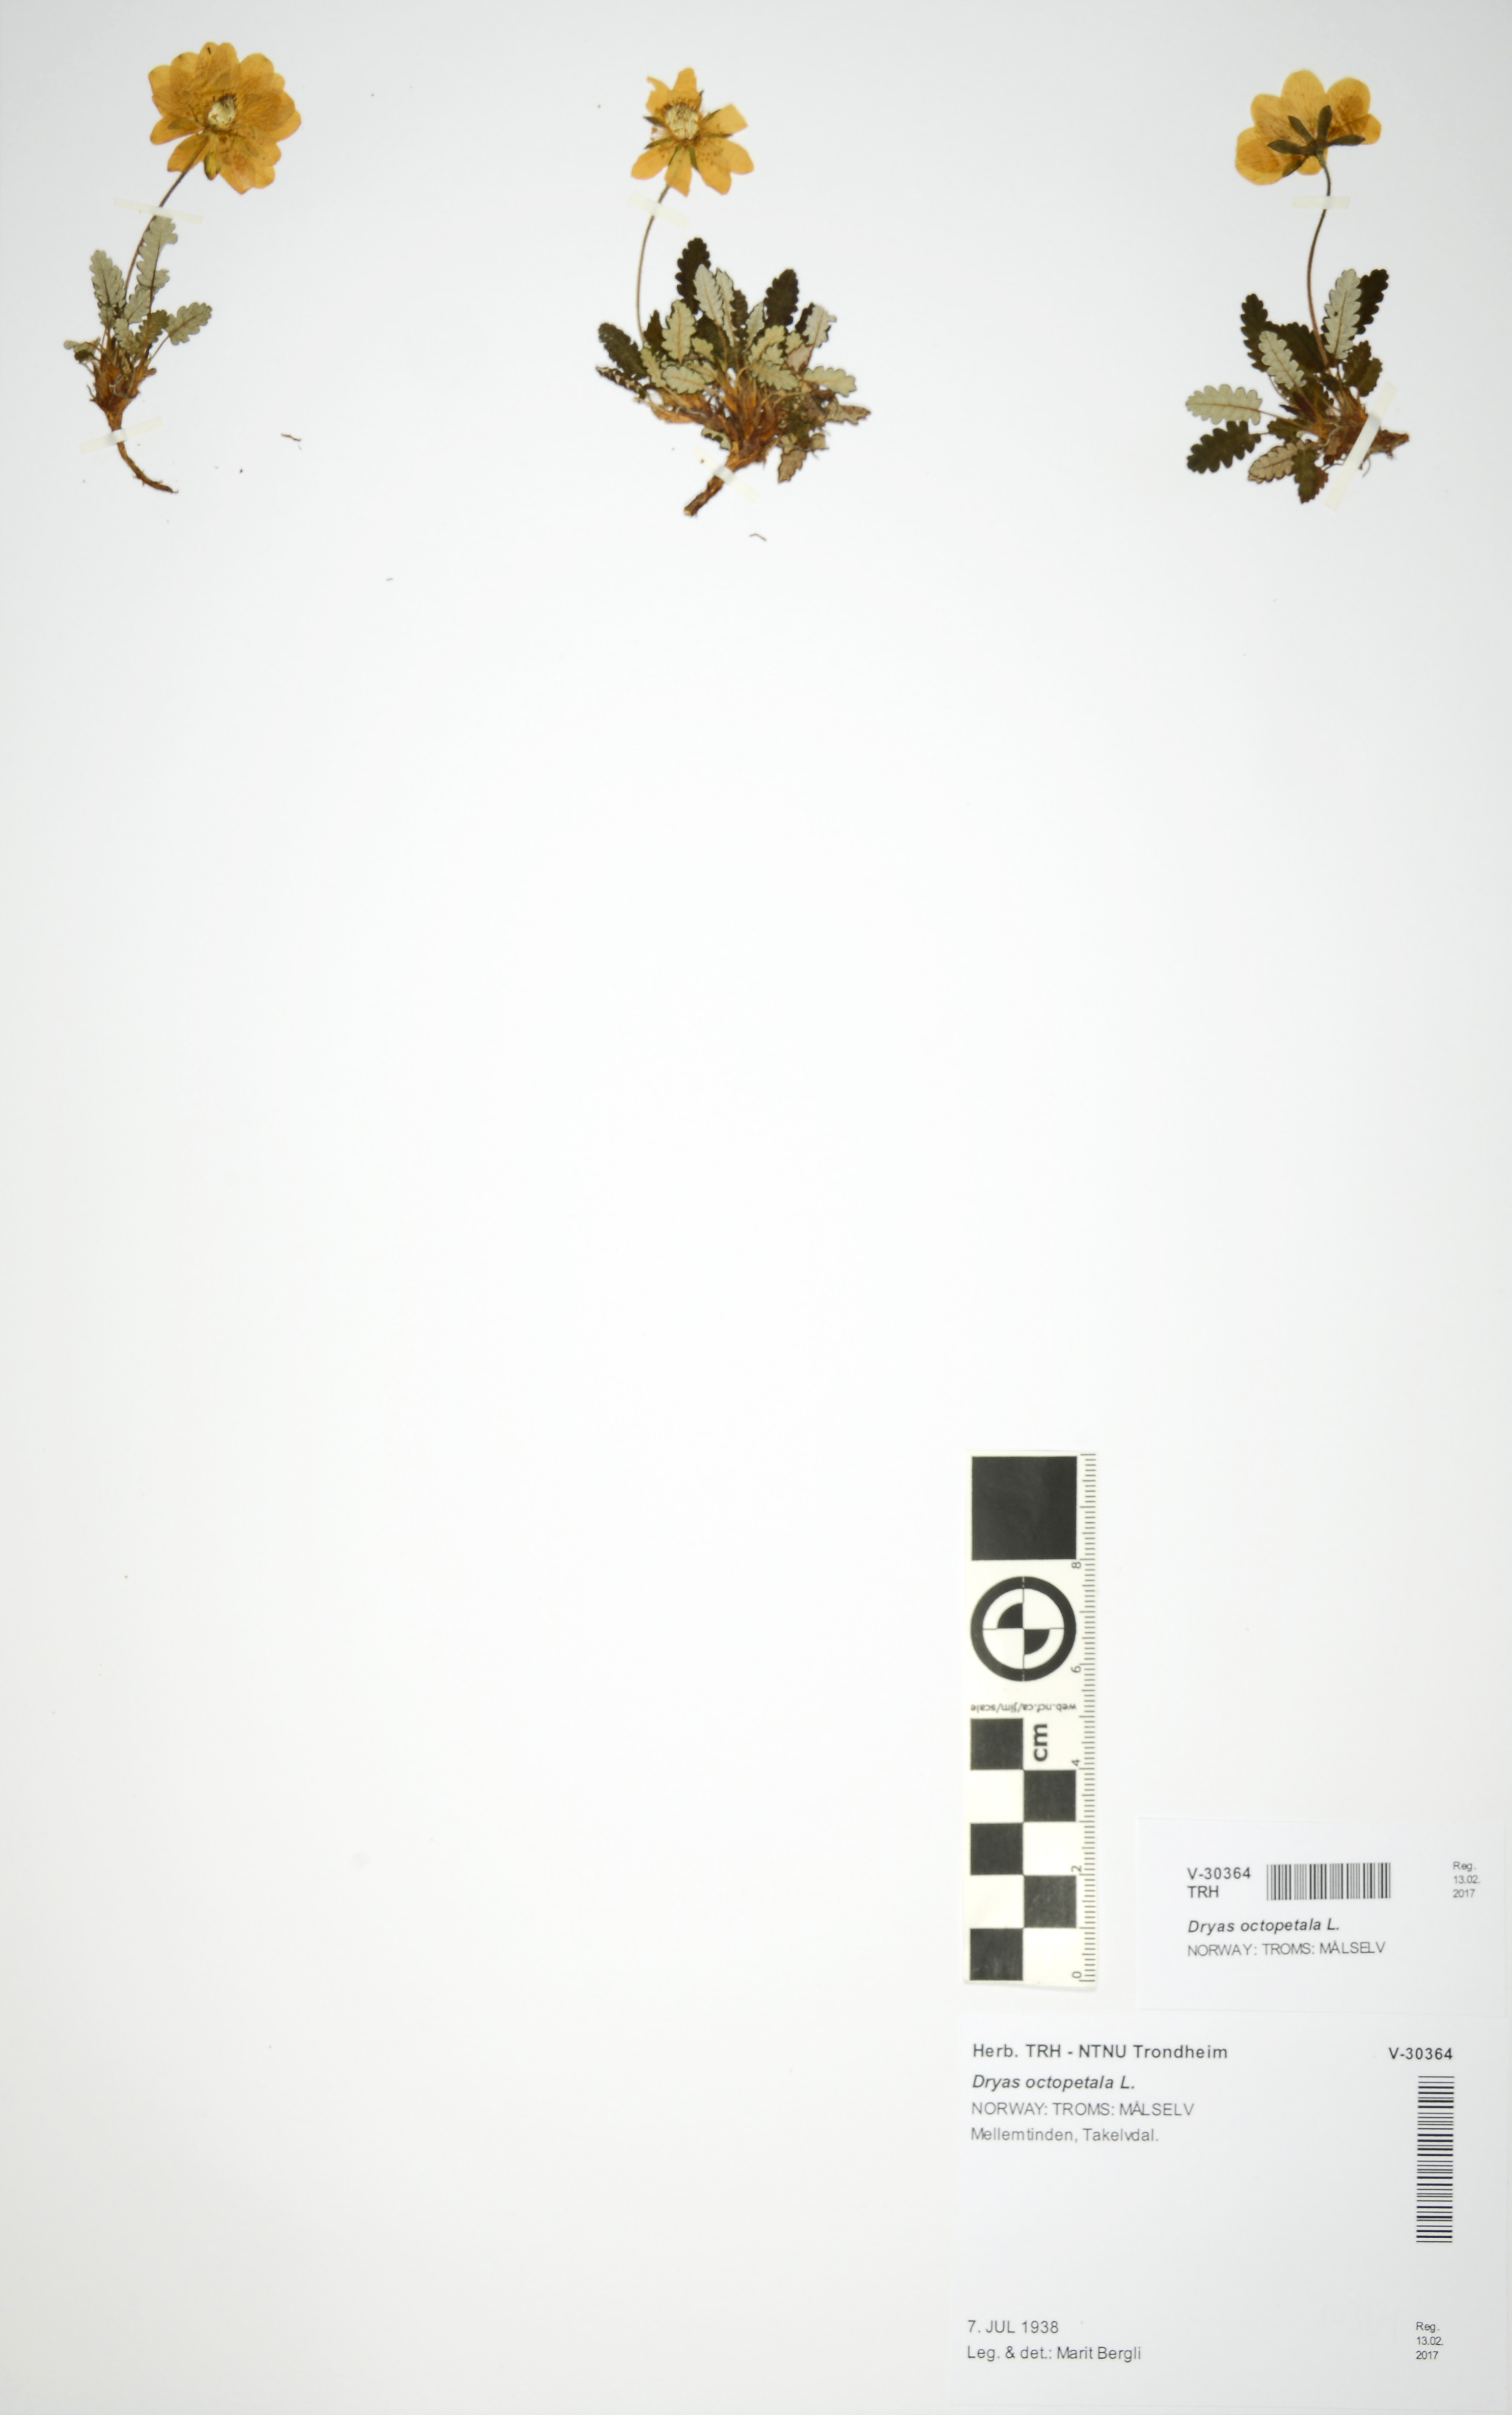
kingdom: Plantae
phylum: Tracheophyta
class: Magnoliopsida
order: Rosales
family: Rosaceae
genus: Dryas
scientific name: Dryas octopetala
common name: Eight-petal mountain-avens
